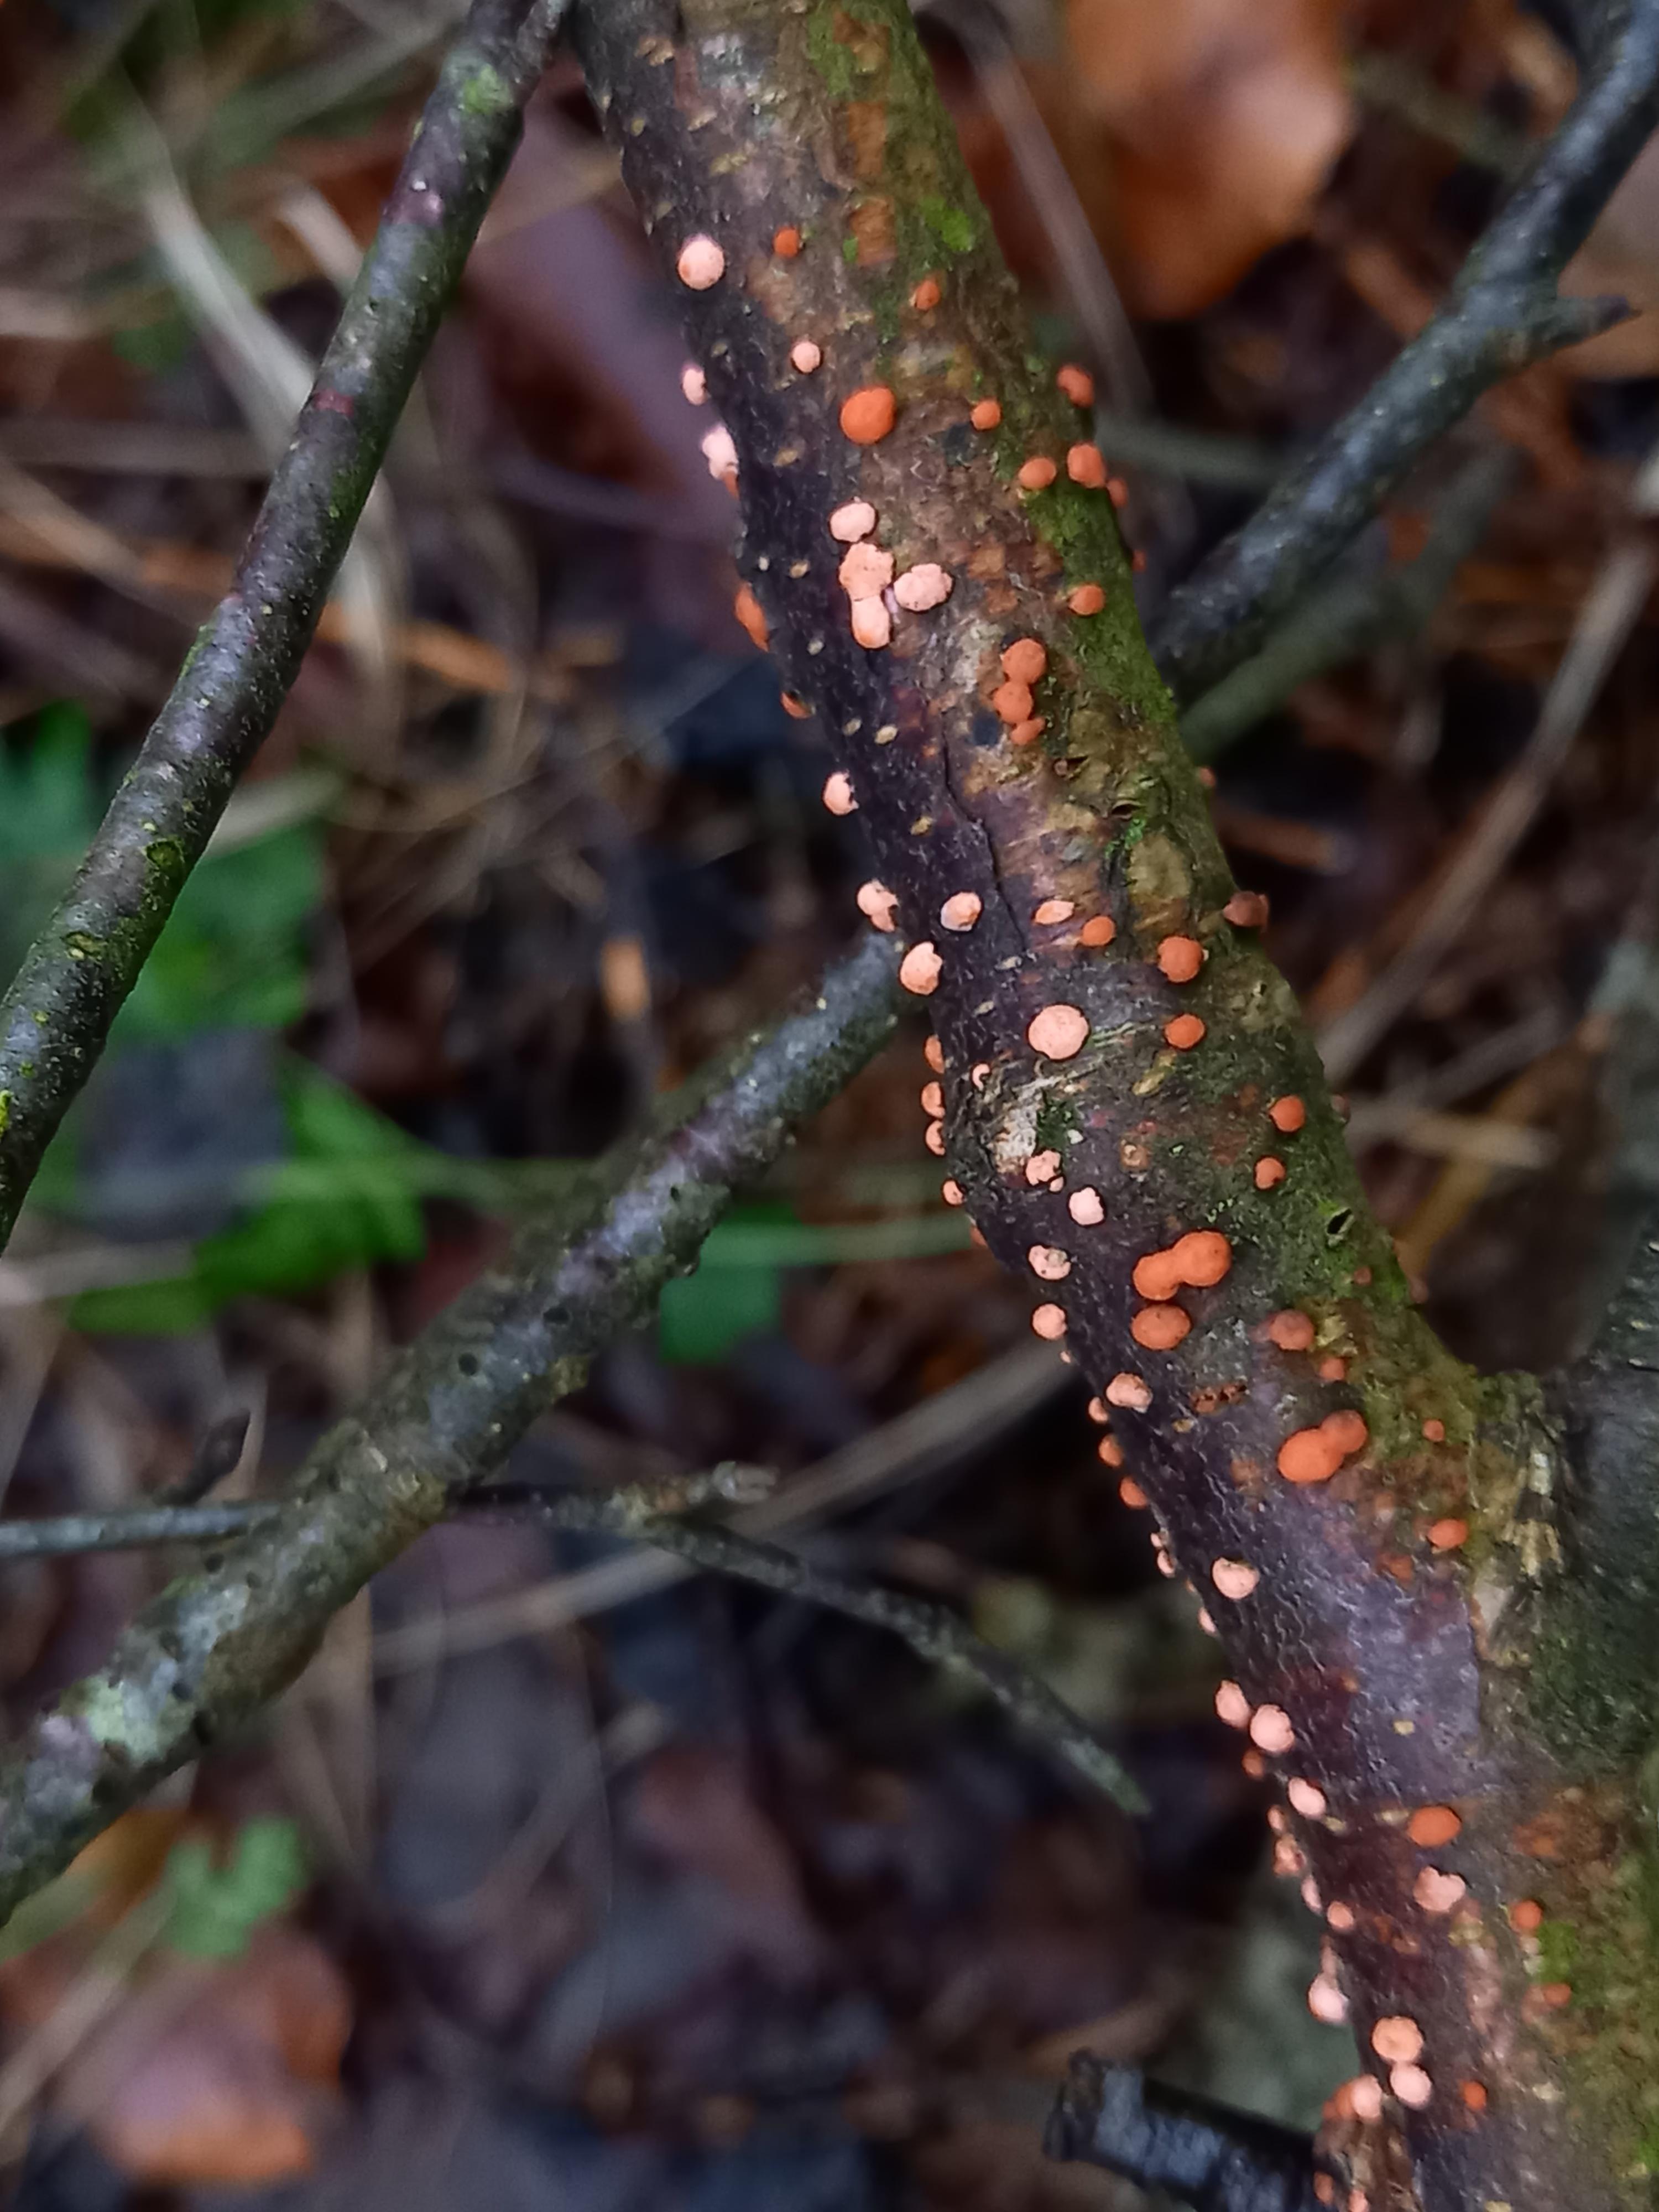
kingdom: Fungi
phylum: Ascomycota
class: Sordariomycetes
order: Hypocreales
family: Nectriaceae
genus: Nectria
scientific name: Nectria cinnabarina
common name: almindelig cinnobersvamp
